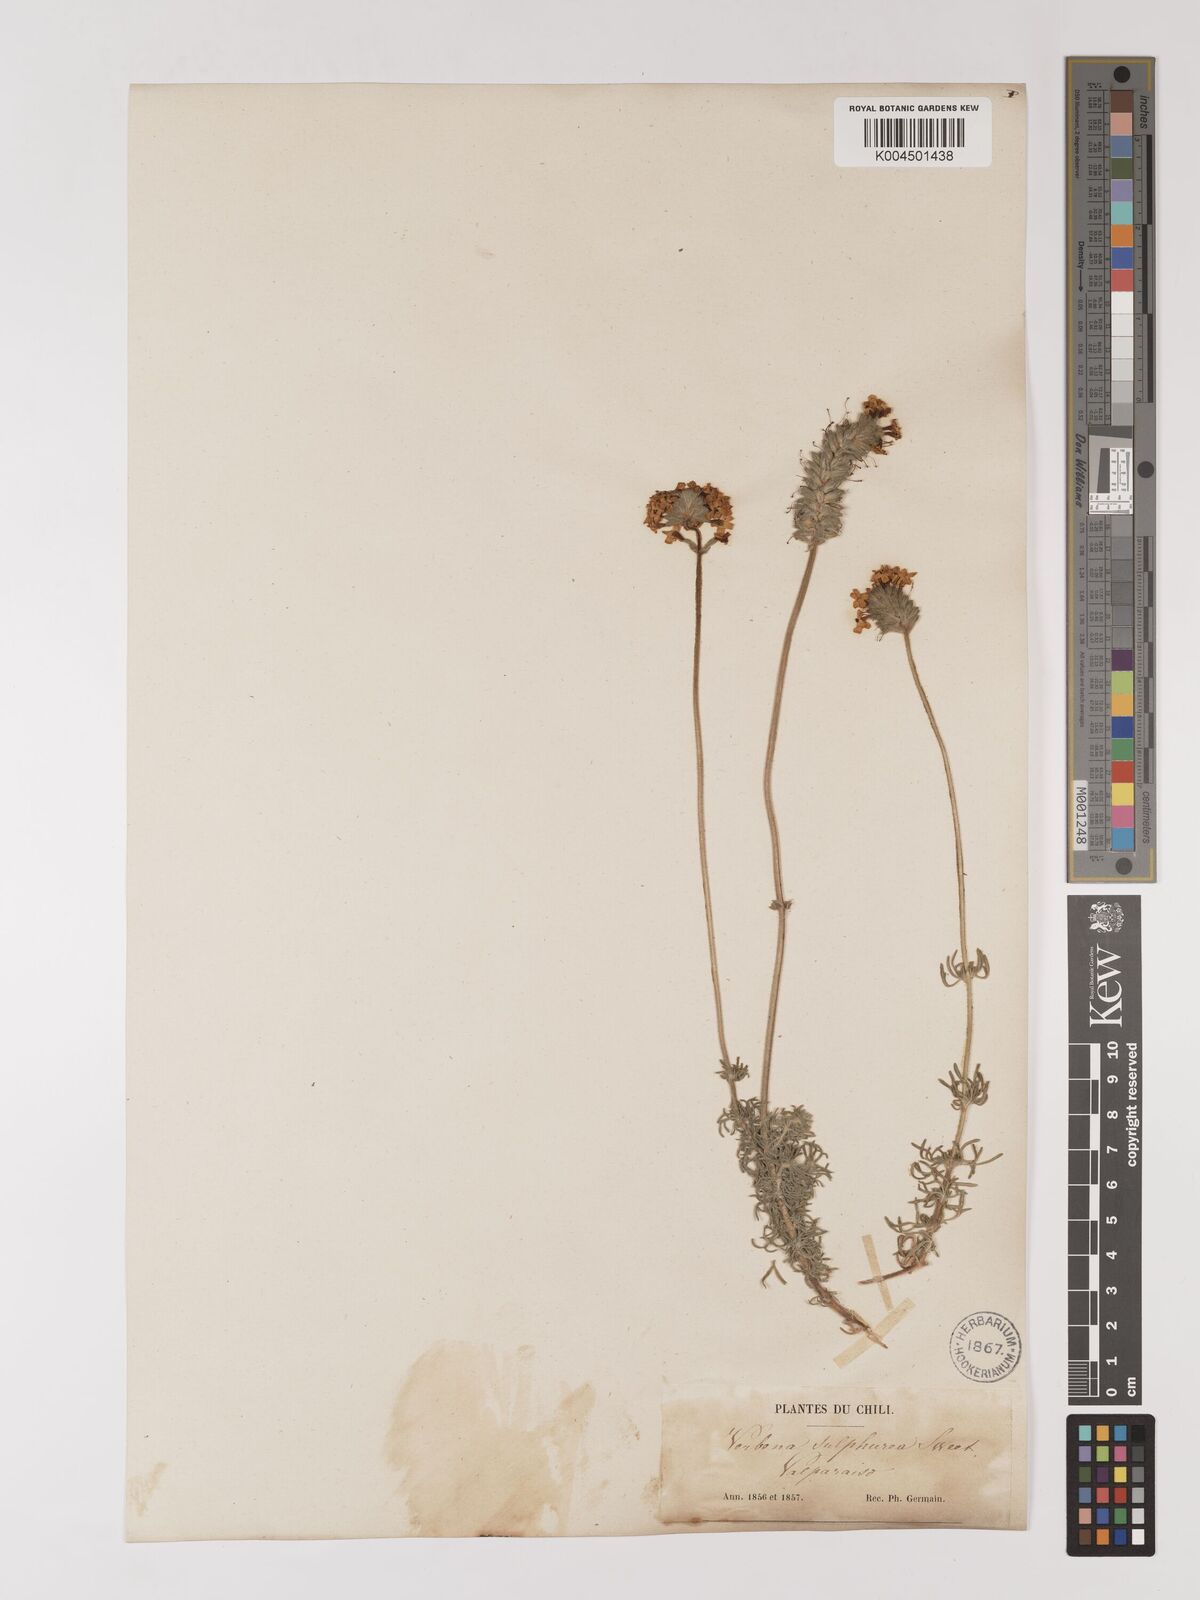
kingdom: Plantae
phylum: Tracheophyta
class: Magnoliopsida
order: Lamiales
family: Verbenaceae
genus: Verbena
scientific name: Verbena sulphurea
